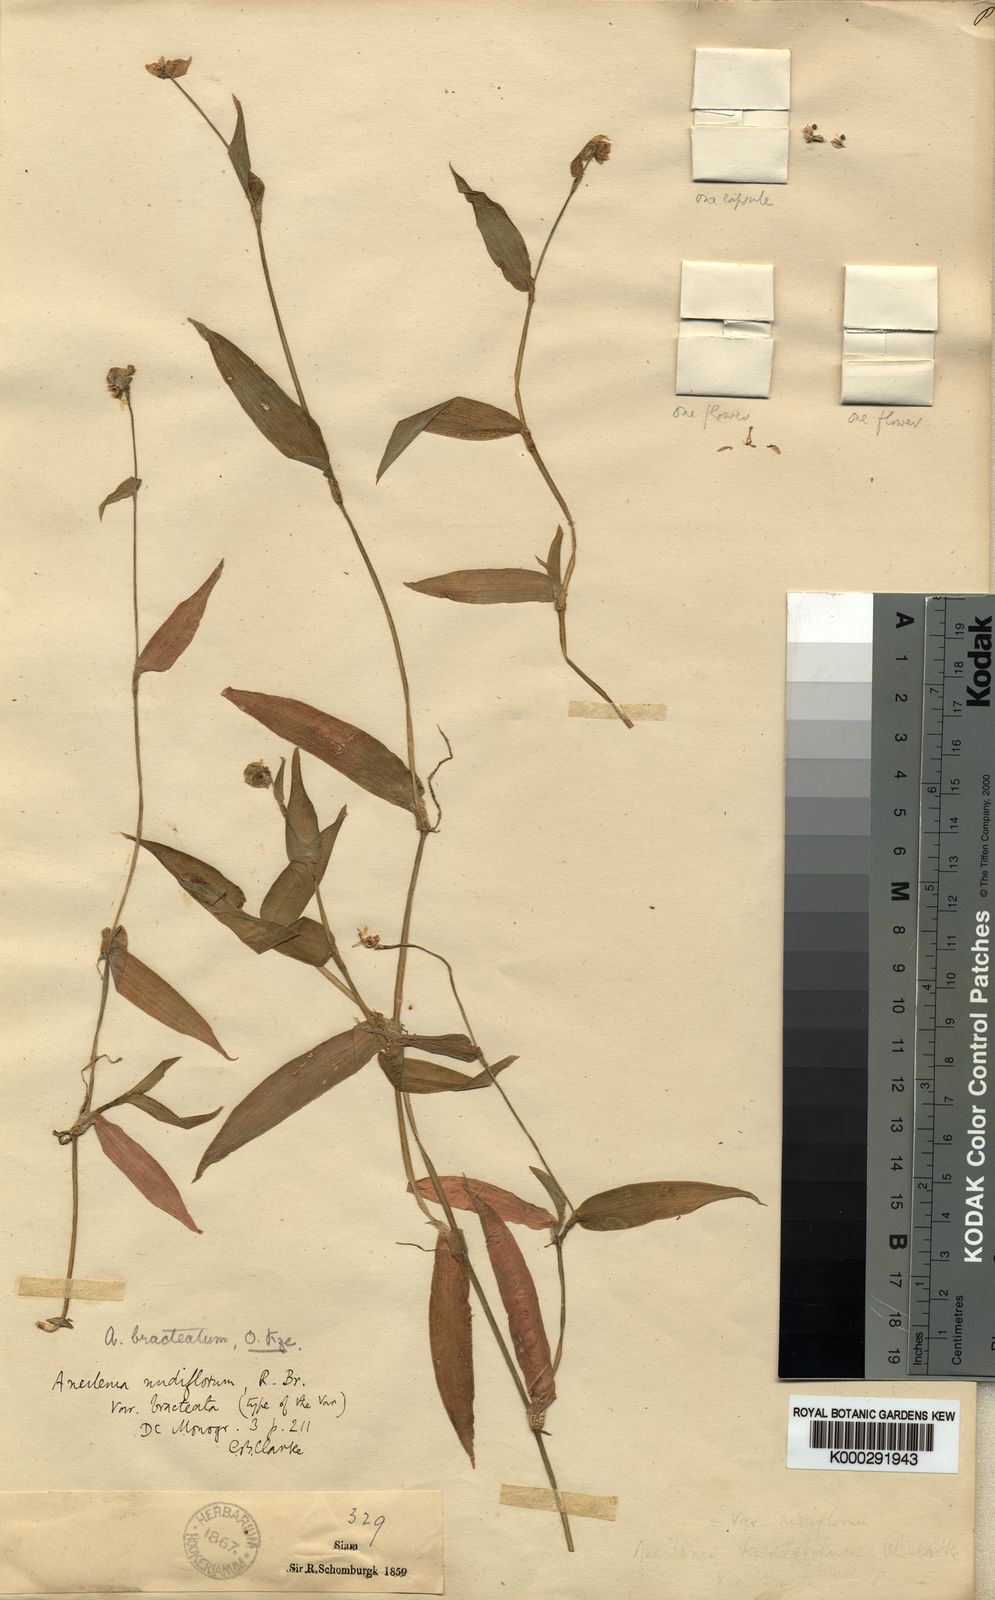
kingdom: Plantae
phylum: Tracheophyta
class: Liliopsida
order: Commelinales
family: Commelinaceae
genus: Murdannia
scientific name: Murdannia
